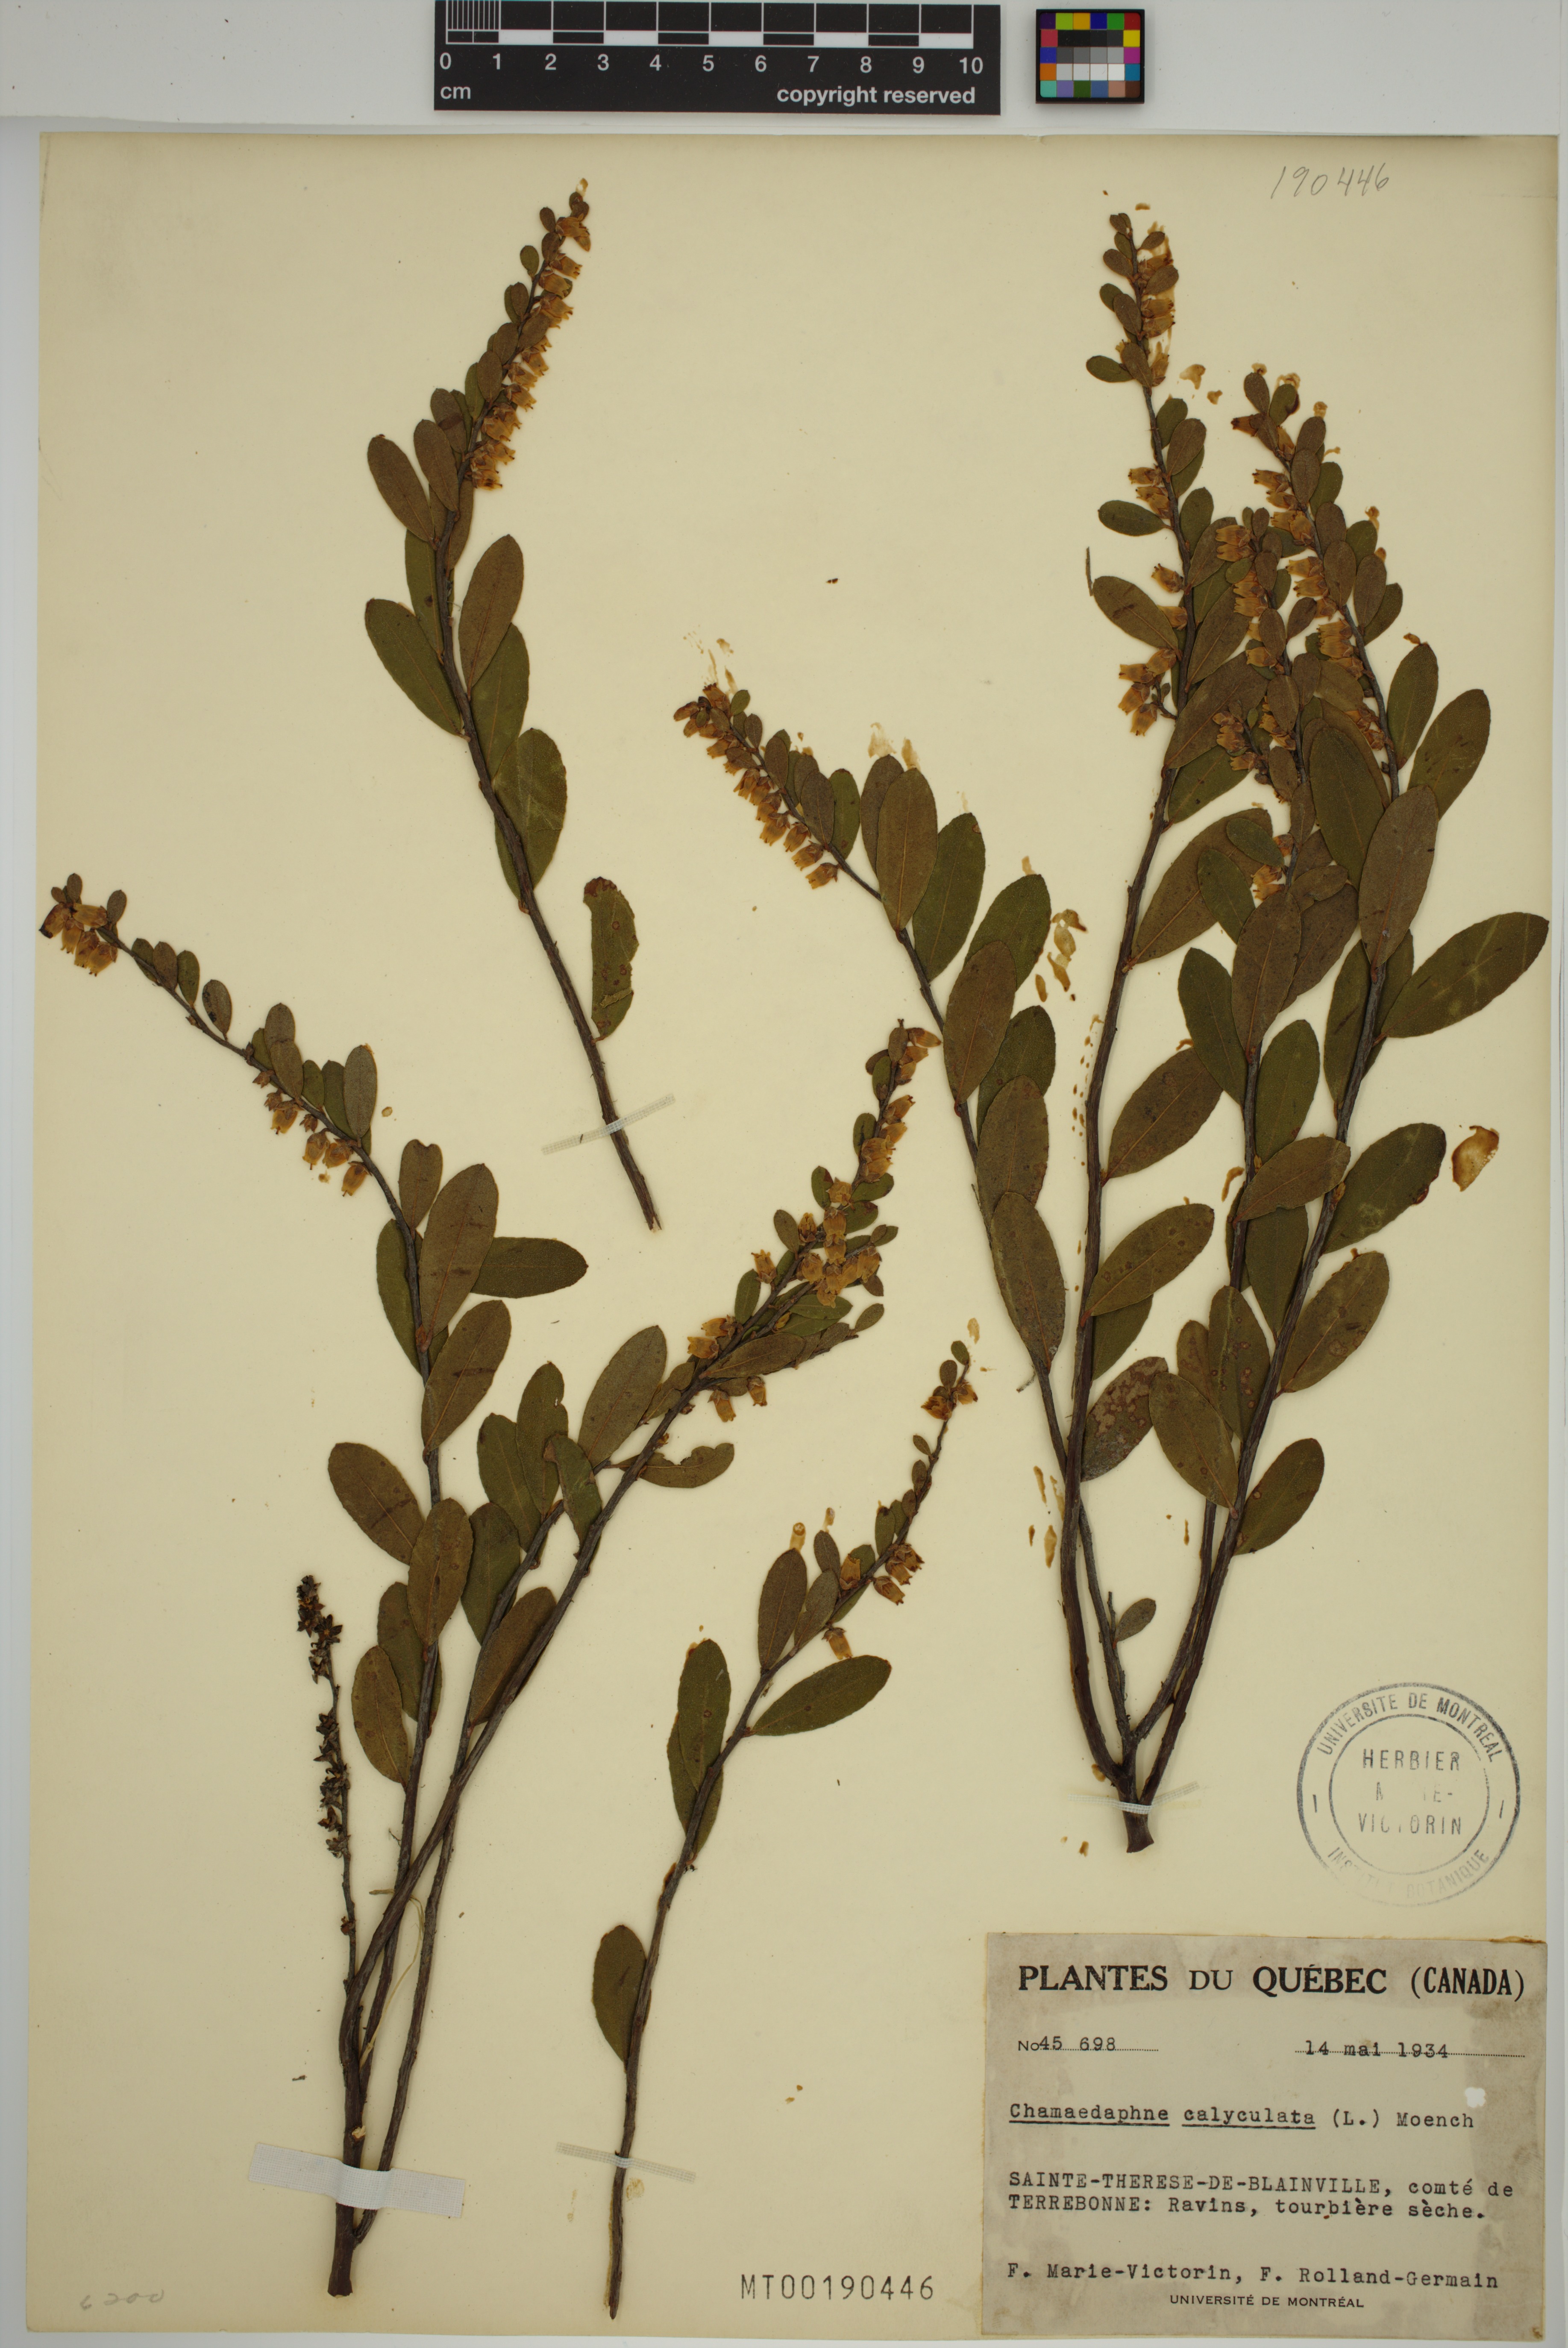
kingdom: Plantae
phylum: Tracheophyta
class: Magnoliopsida
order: Ericales
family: Ericaceae
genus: Chamaedaphne
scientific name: Chamaedaphne calyculata
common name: Leatherleaf
